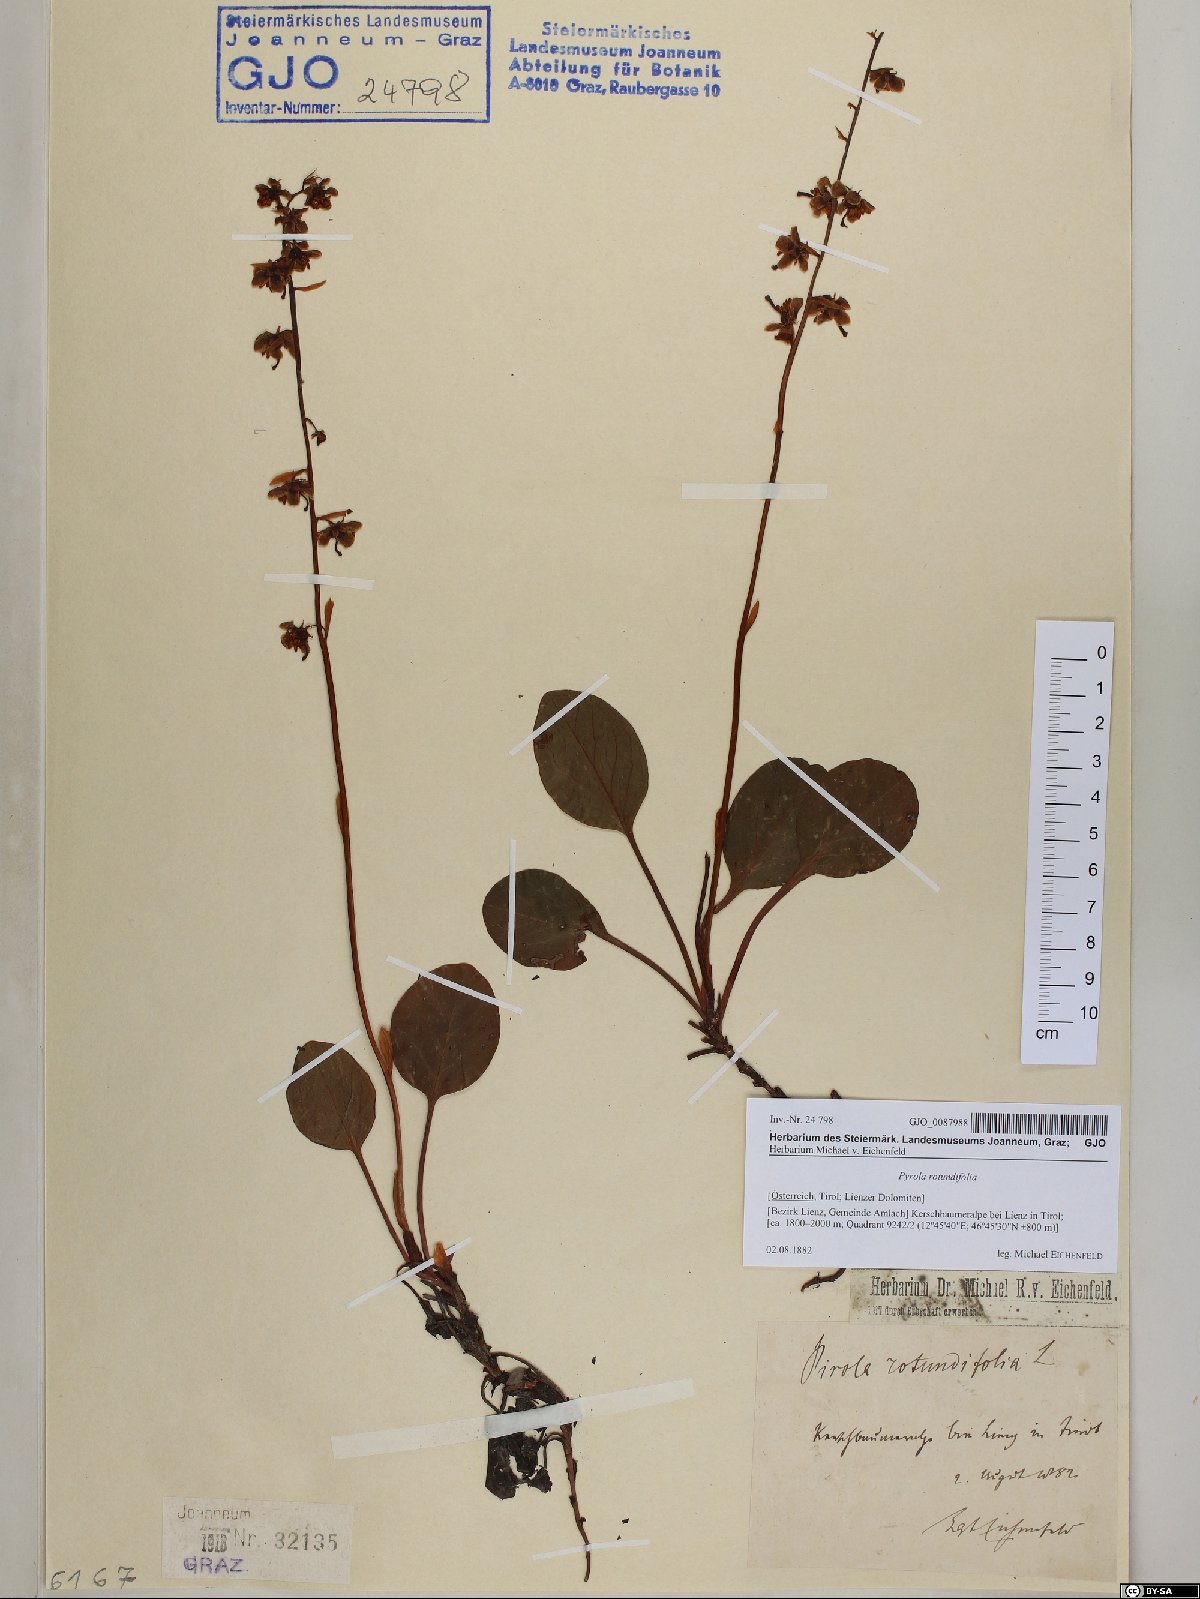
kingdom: Plantae
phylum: Tracheophyta
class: Magnoliopsida
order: Ericales
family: Ericaceae
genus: Pyrola
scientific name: Pyrola rotundifolia
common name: Round-leaved wintergreen
